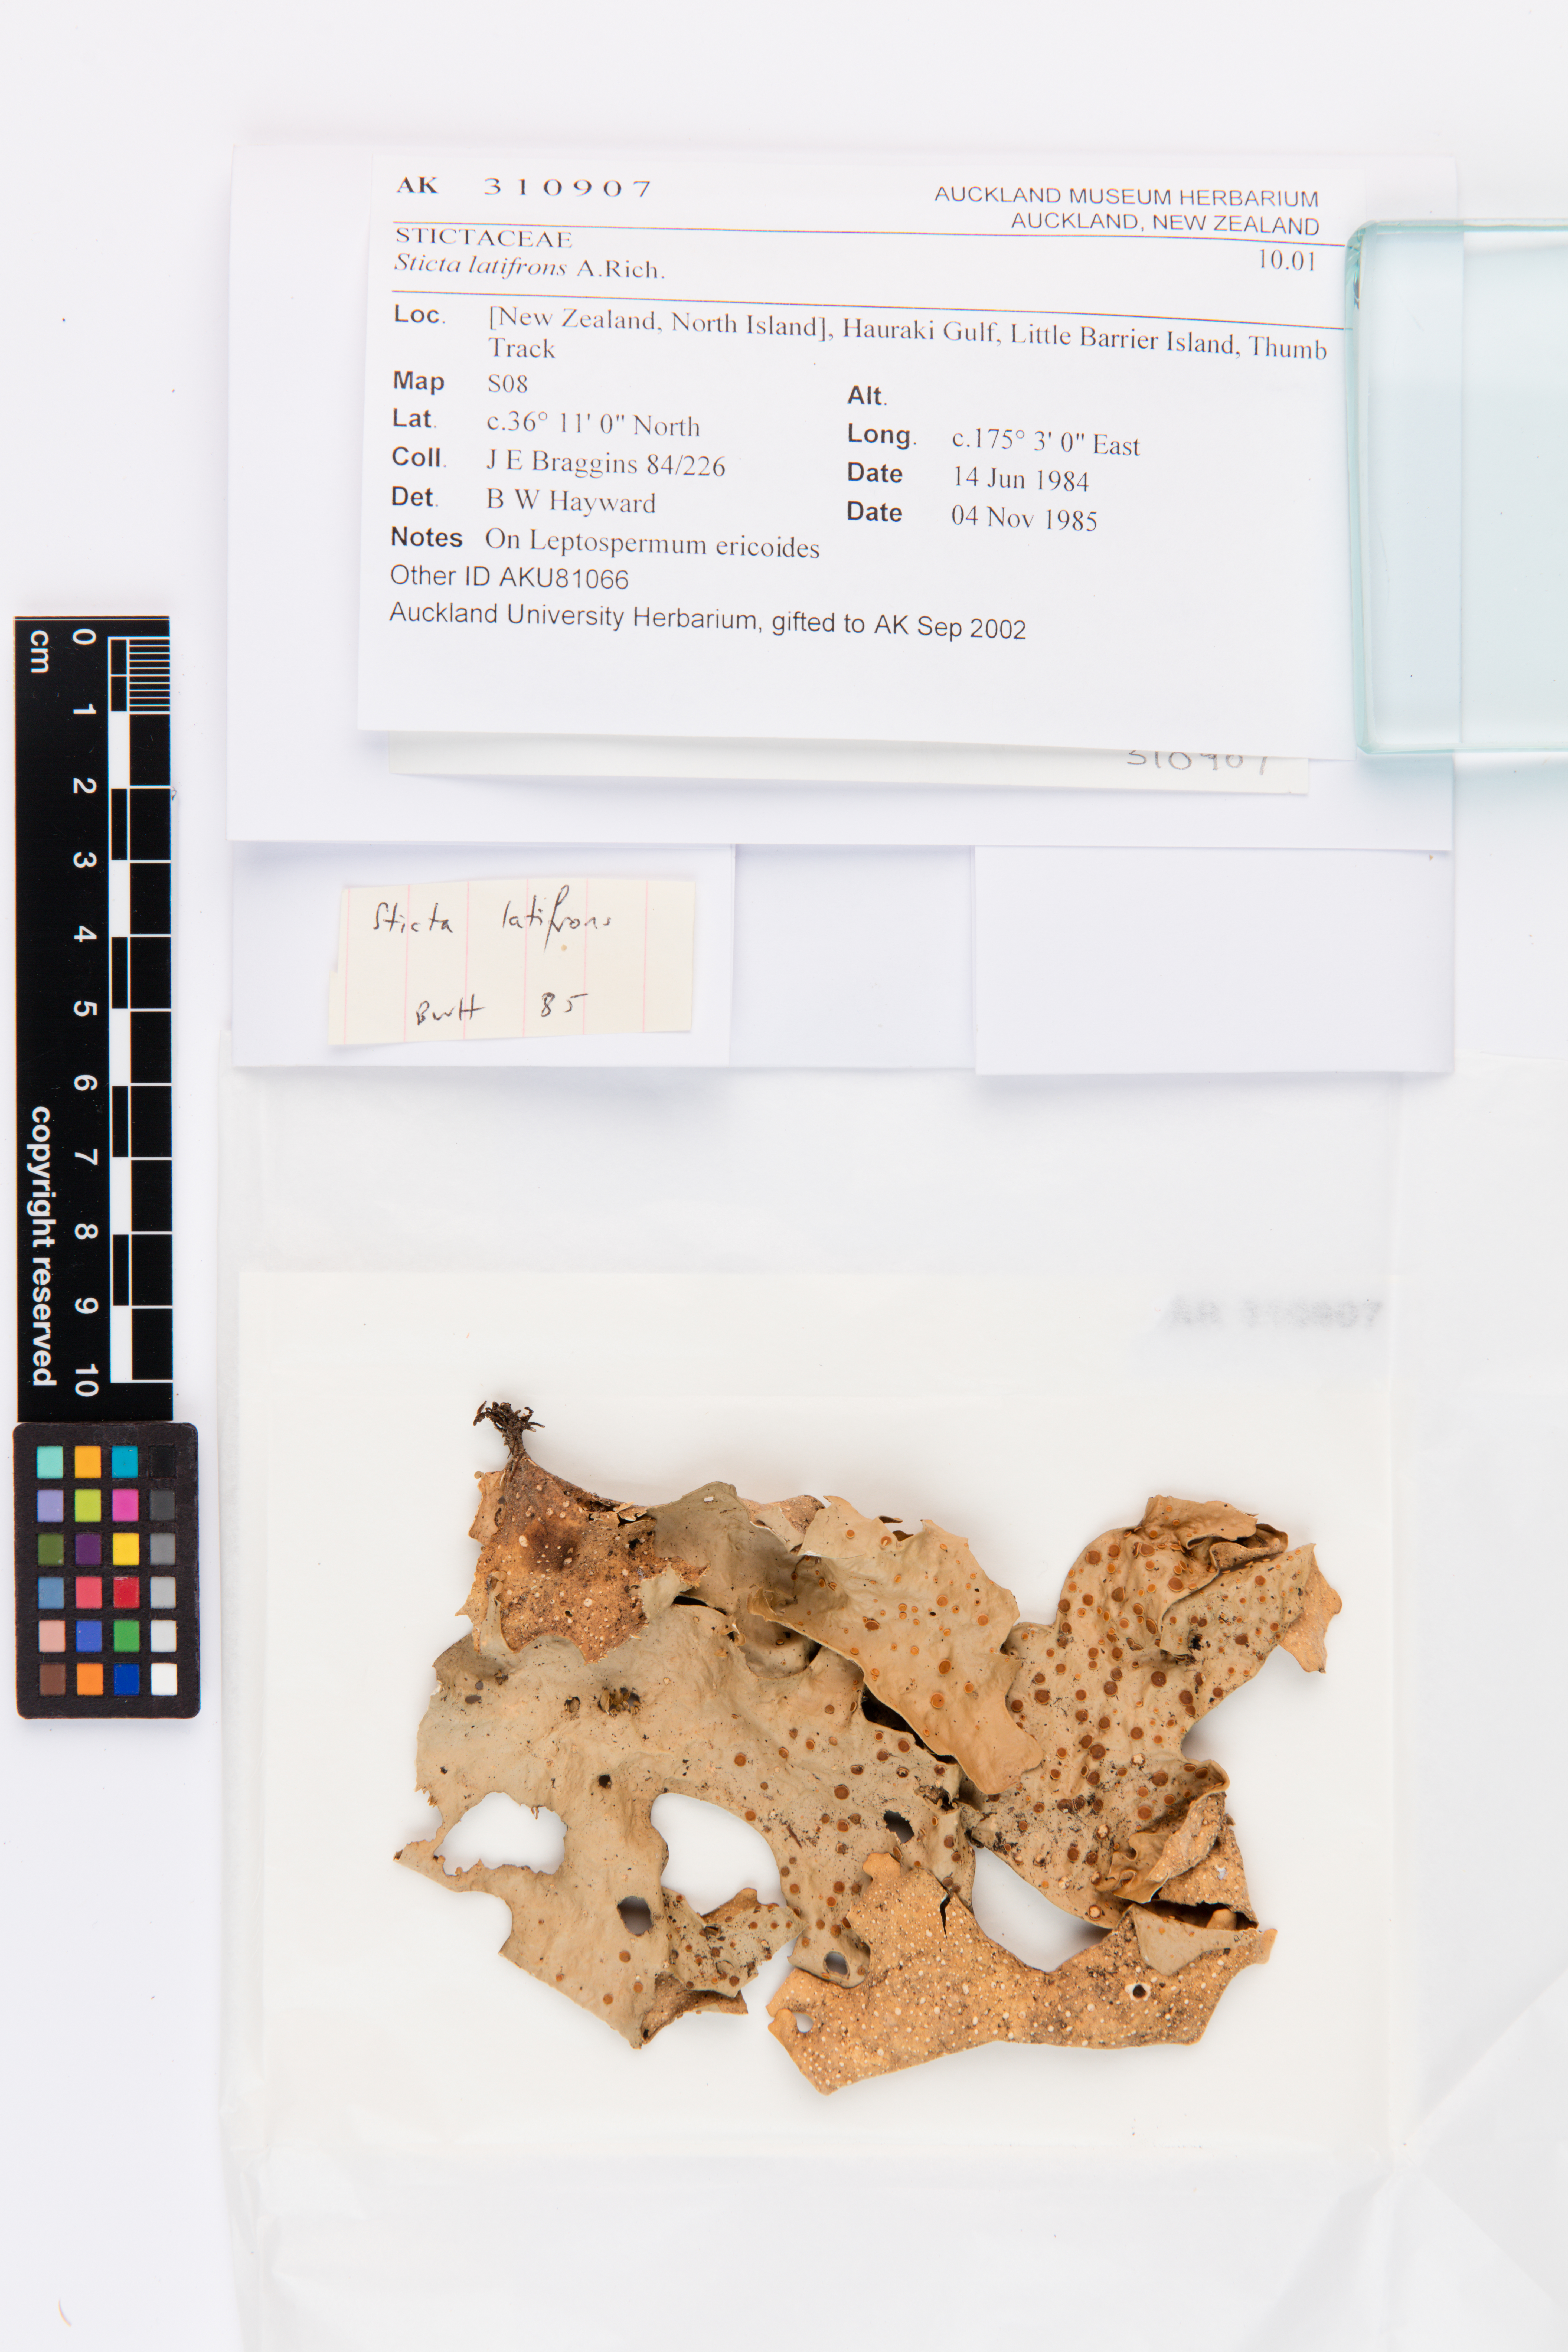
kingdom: Fungi
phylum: Ascomycota
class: Lecanoromycetes
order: Peltigerales
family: Lobariaceae
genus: Sticta
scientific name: Sticta latifrons
